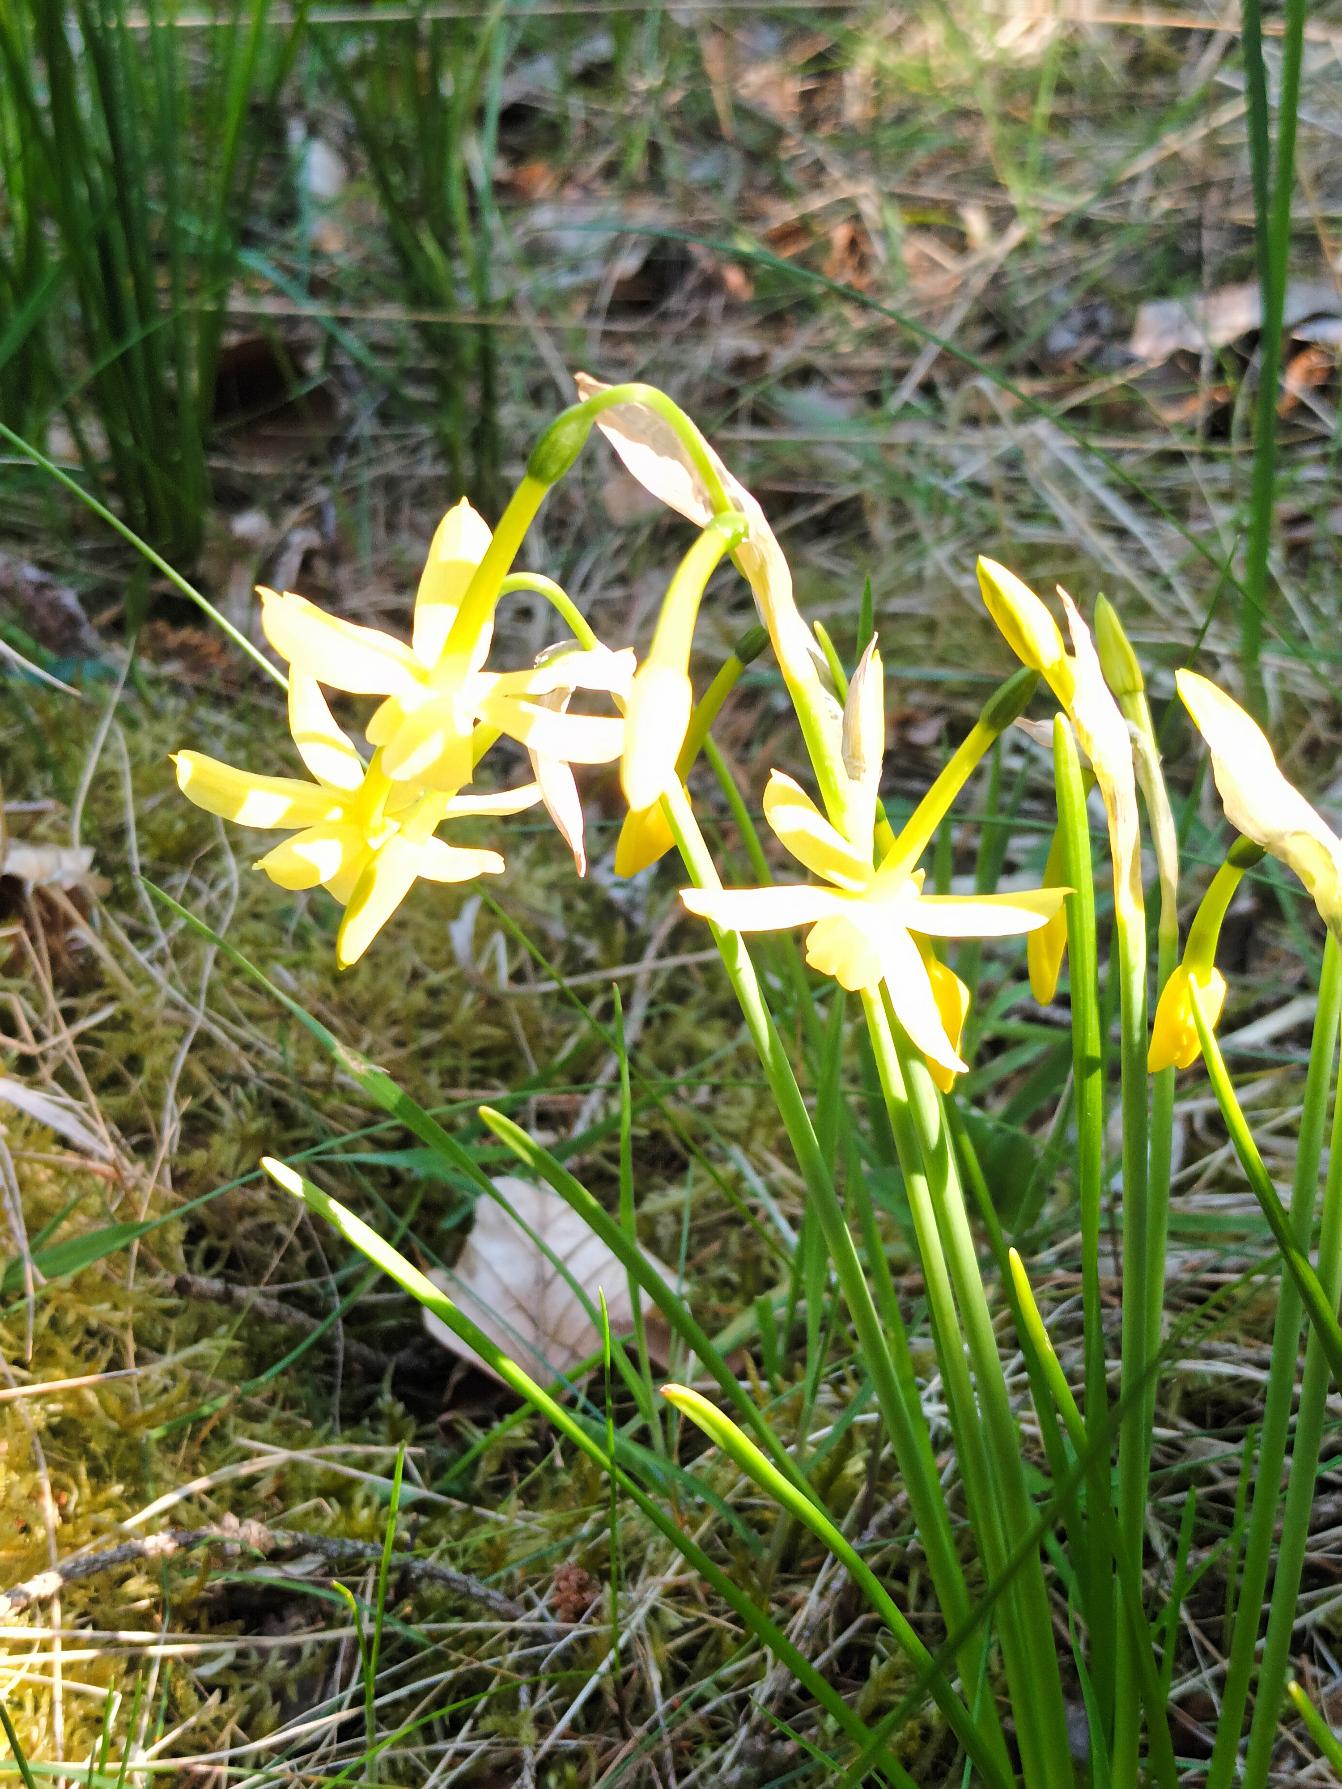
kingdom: Plantae
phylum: Tracheophyta
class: Liliopsida
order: Asparagales
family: Amaryllidaceae
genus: Narcissus
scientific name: Narcissus jonquilla
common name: Siv-narcis
